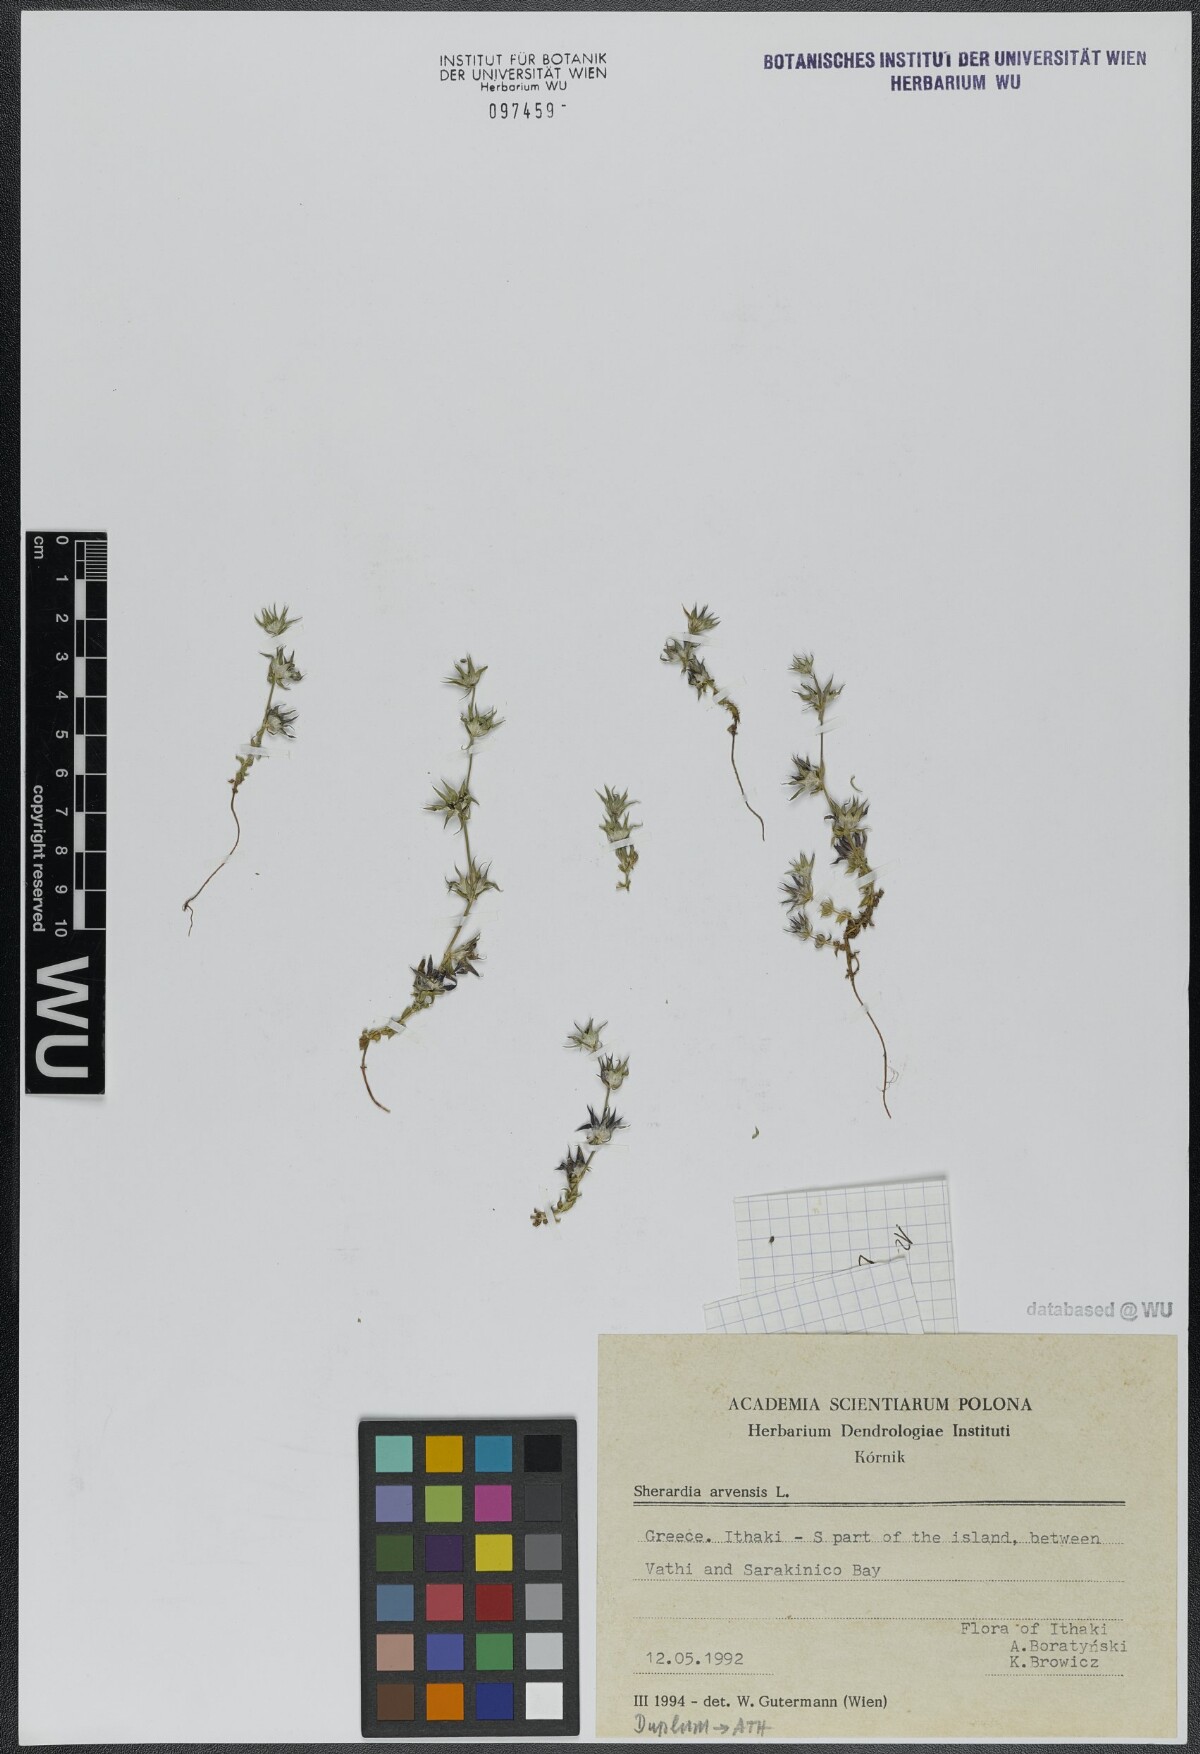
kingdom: Plantae
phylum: Tracheophyta
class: Magnoliopsida
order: Gentianales
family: Rubiaceae
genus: Sherardia
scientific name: Sherardia arvensis
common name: Field madder
